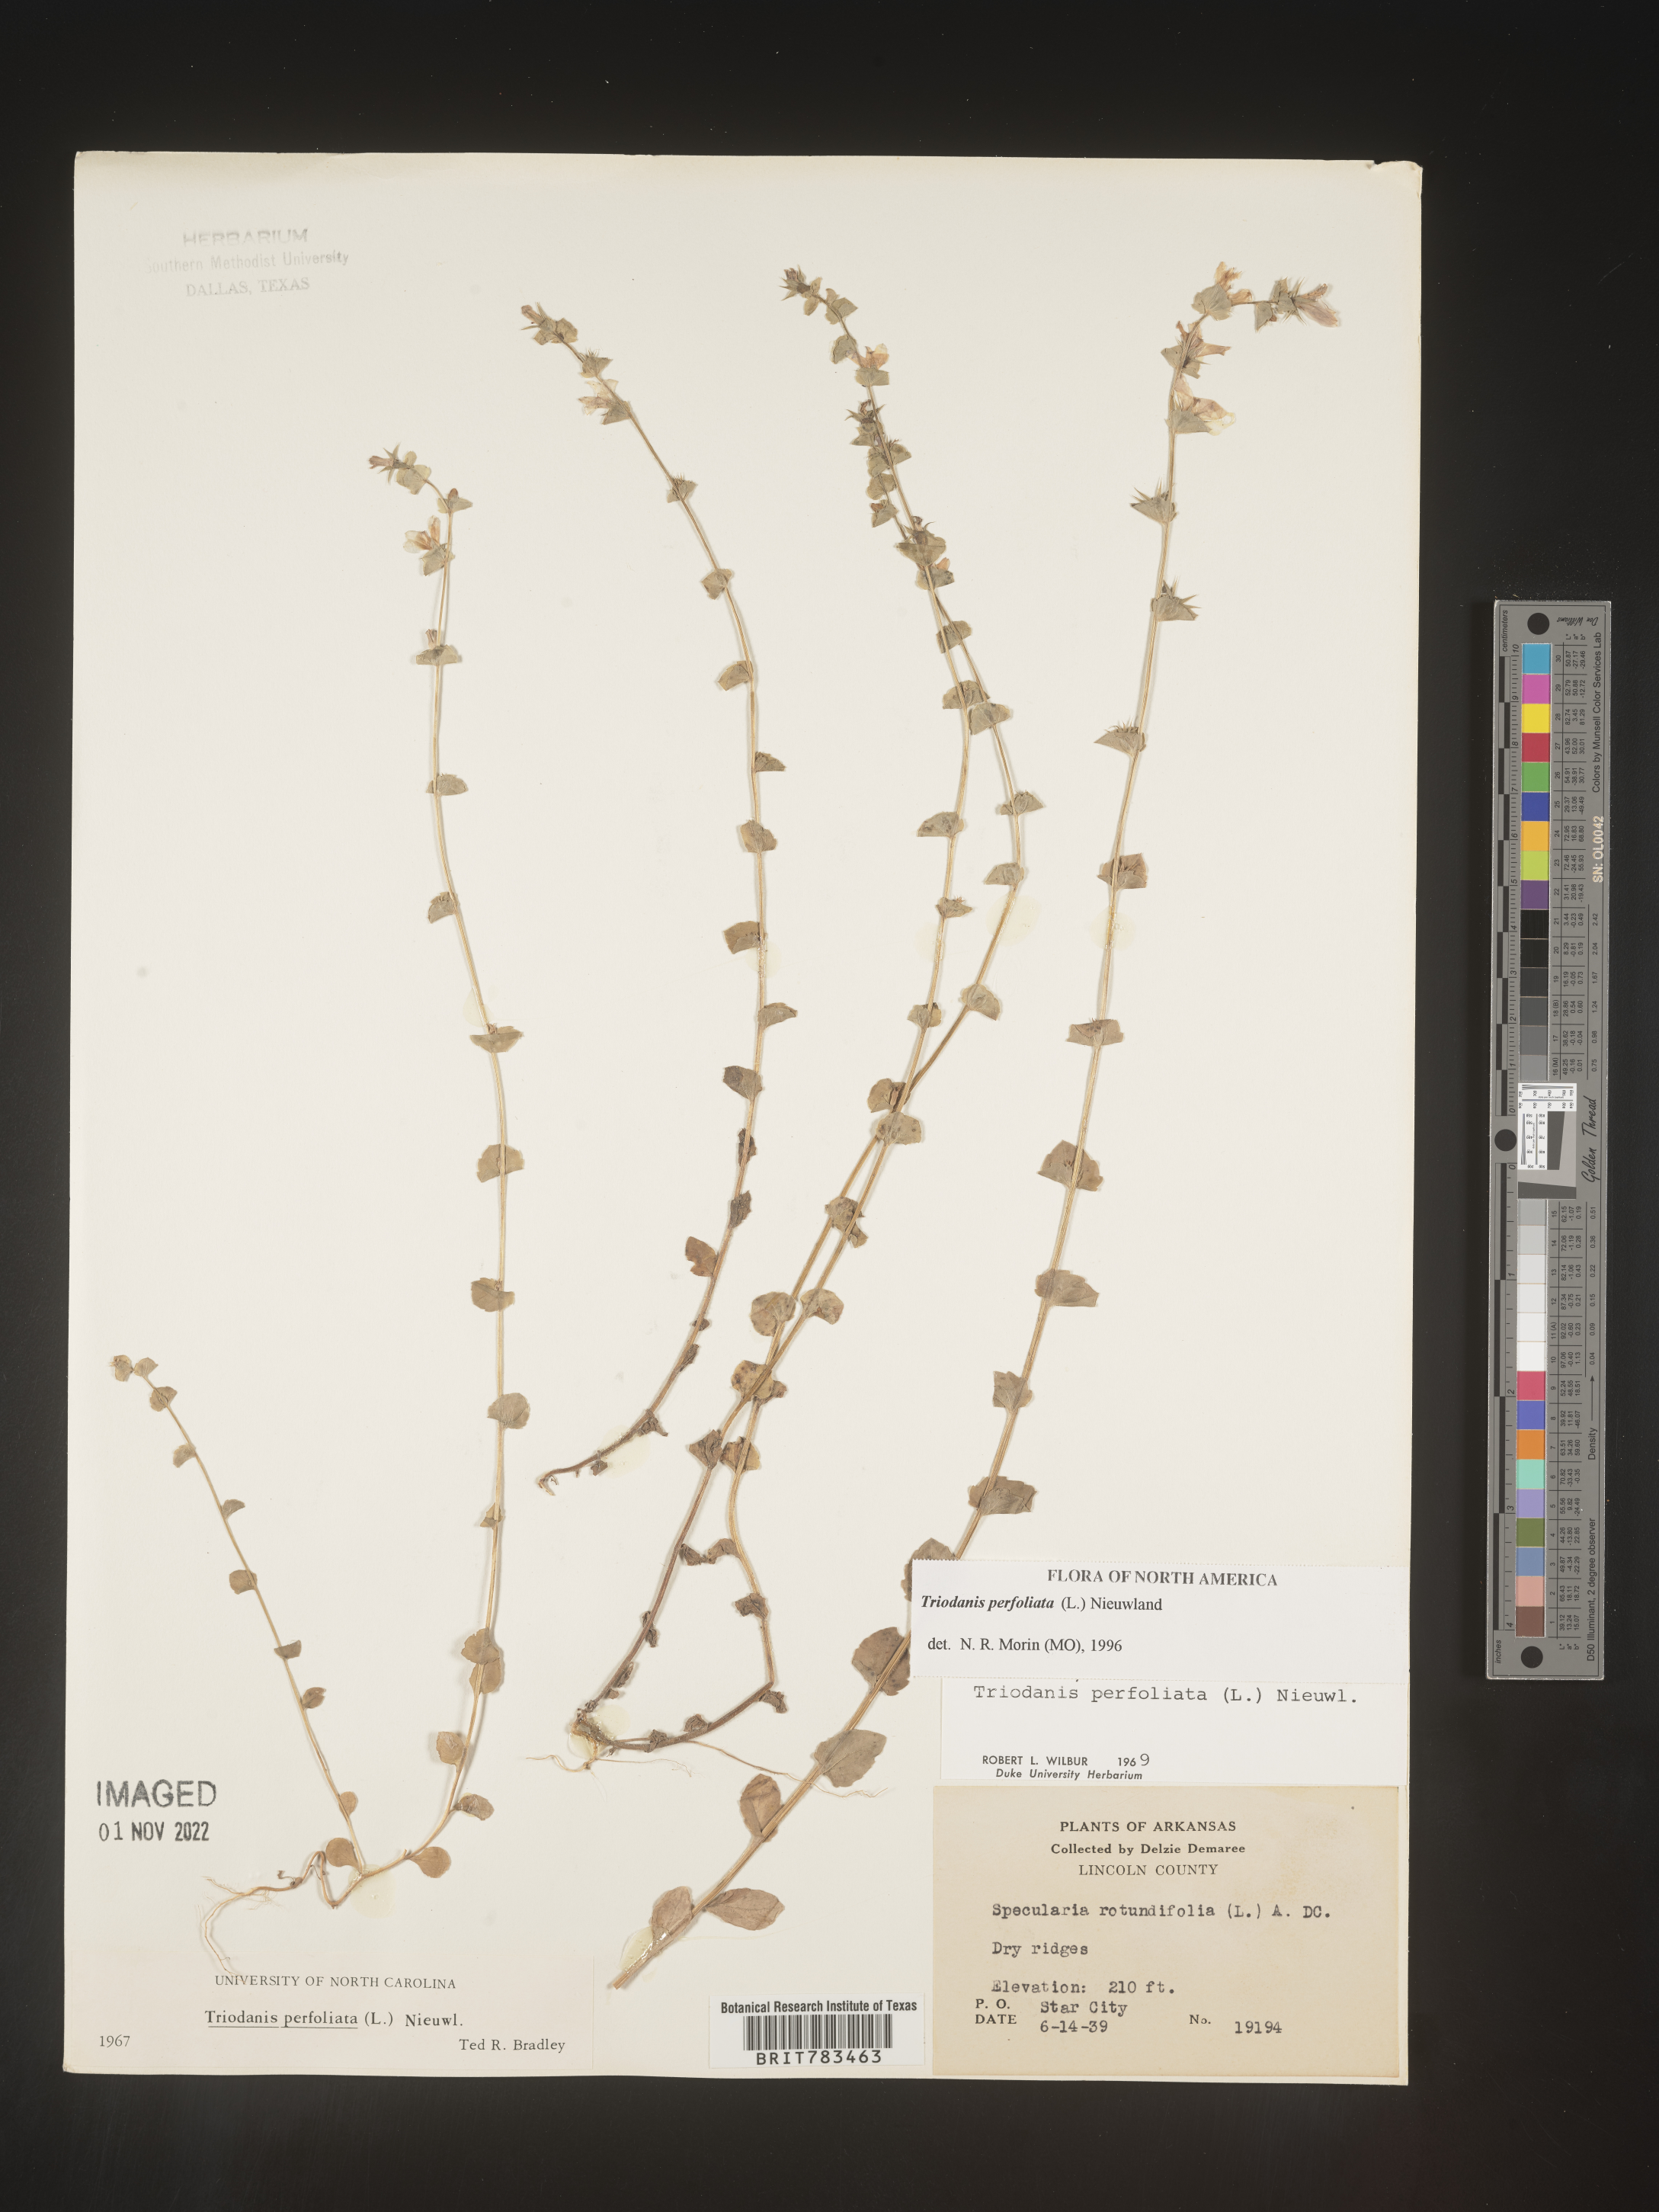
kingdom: Plantae
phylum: Tracheophyta
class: Magnoliopsida
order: Asterales
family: Campanulaceae
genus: Triodanis
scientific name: Triodanis perfoliata
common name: Clasping venus' looking-glass
